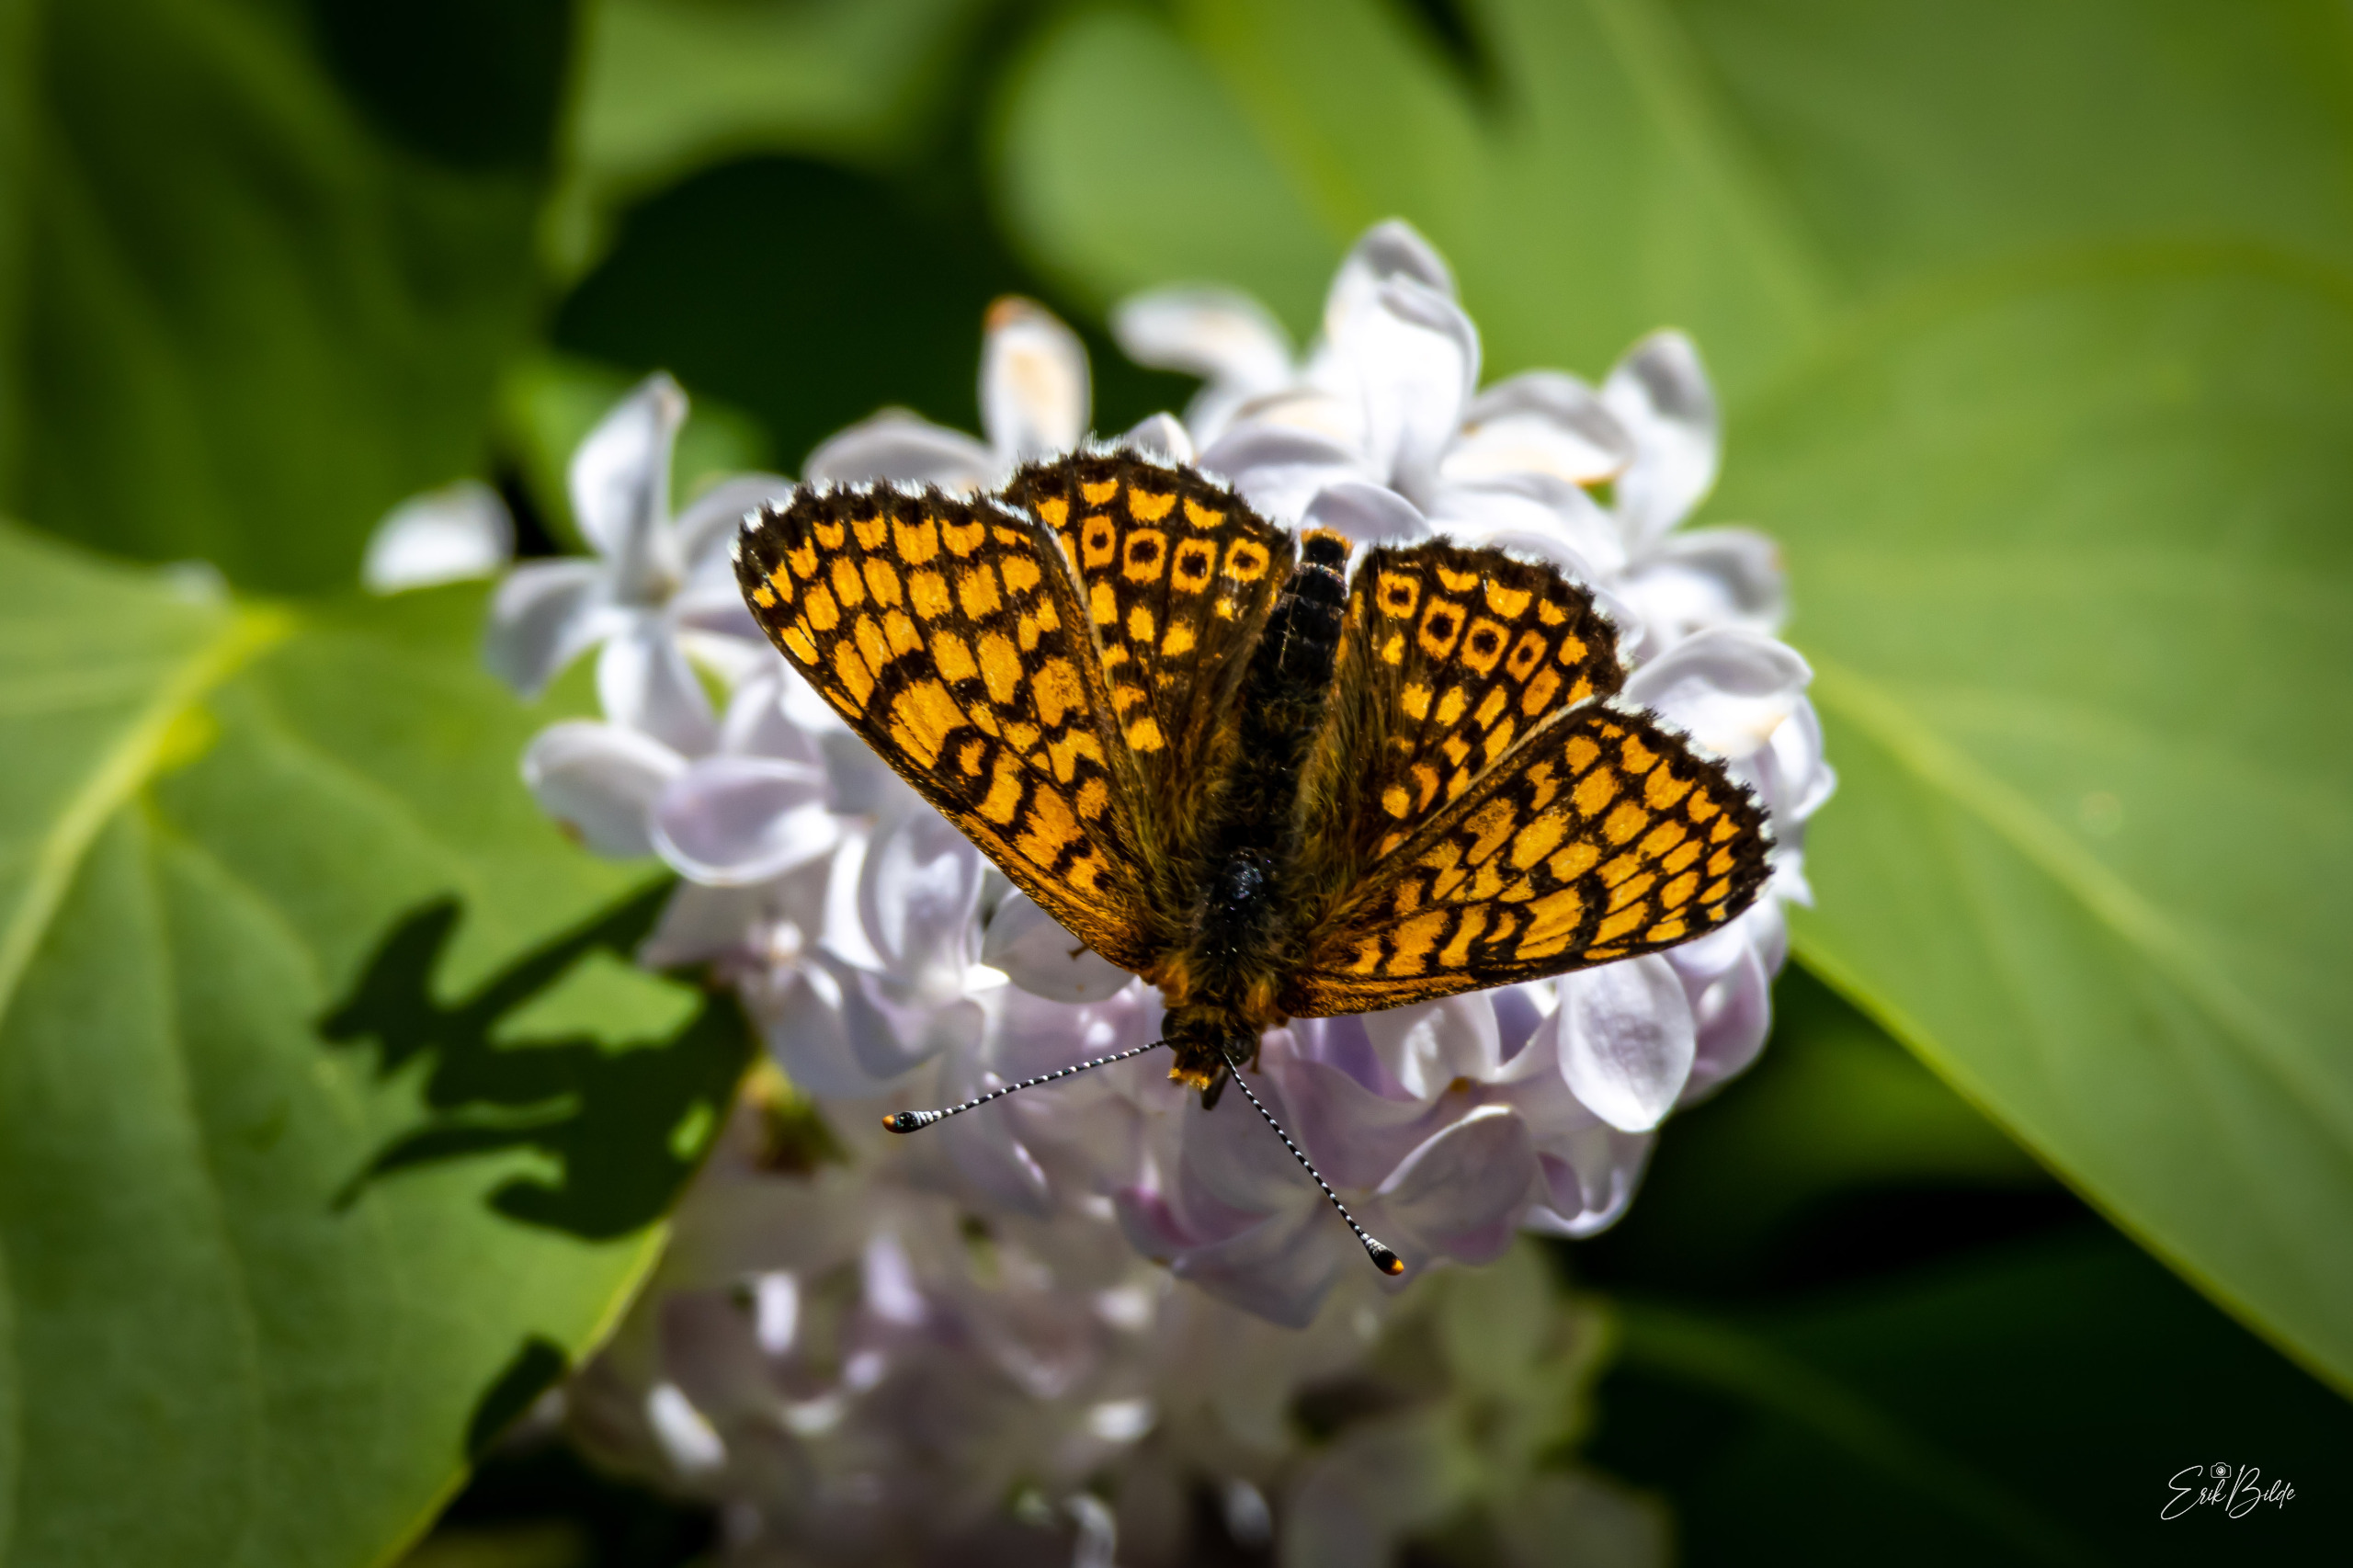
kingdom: Animalia
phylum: Arthropoda
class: Insecta
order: Lepidoptera
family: Nymphalidae
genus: Melitaea
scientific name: Melitaea cinxia
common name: Okkergul pletvinge
